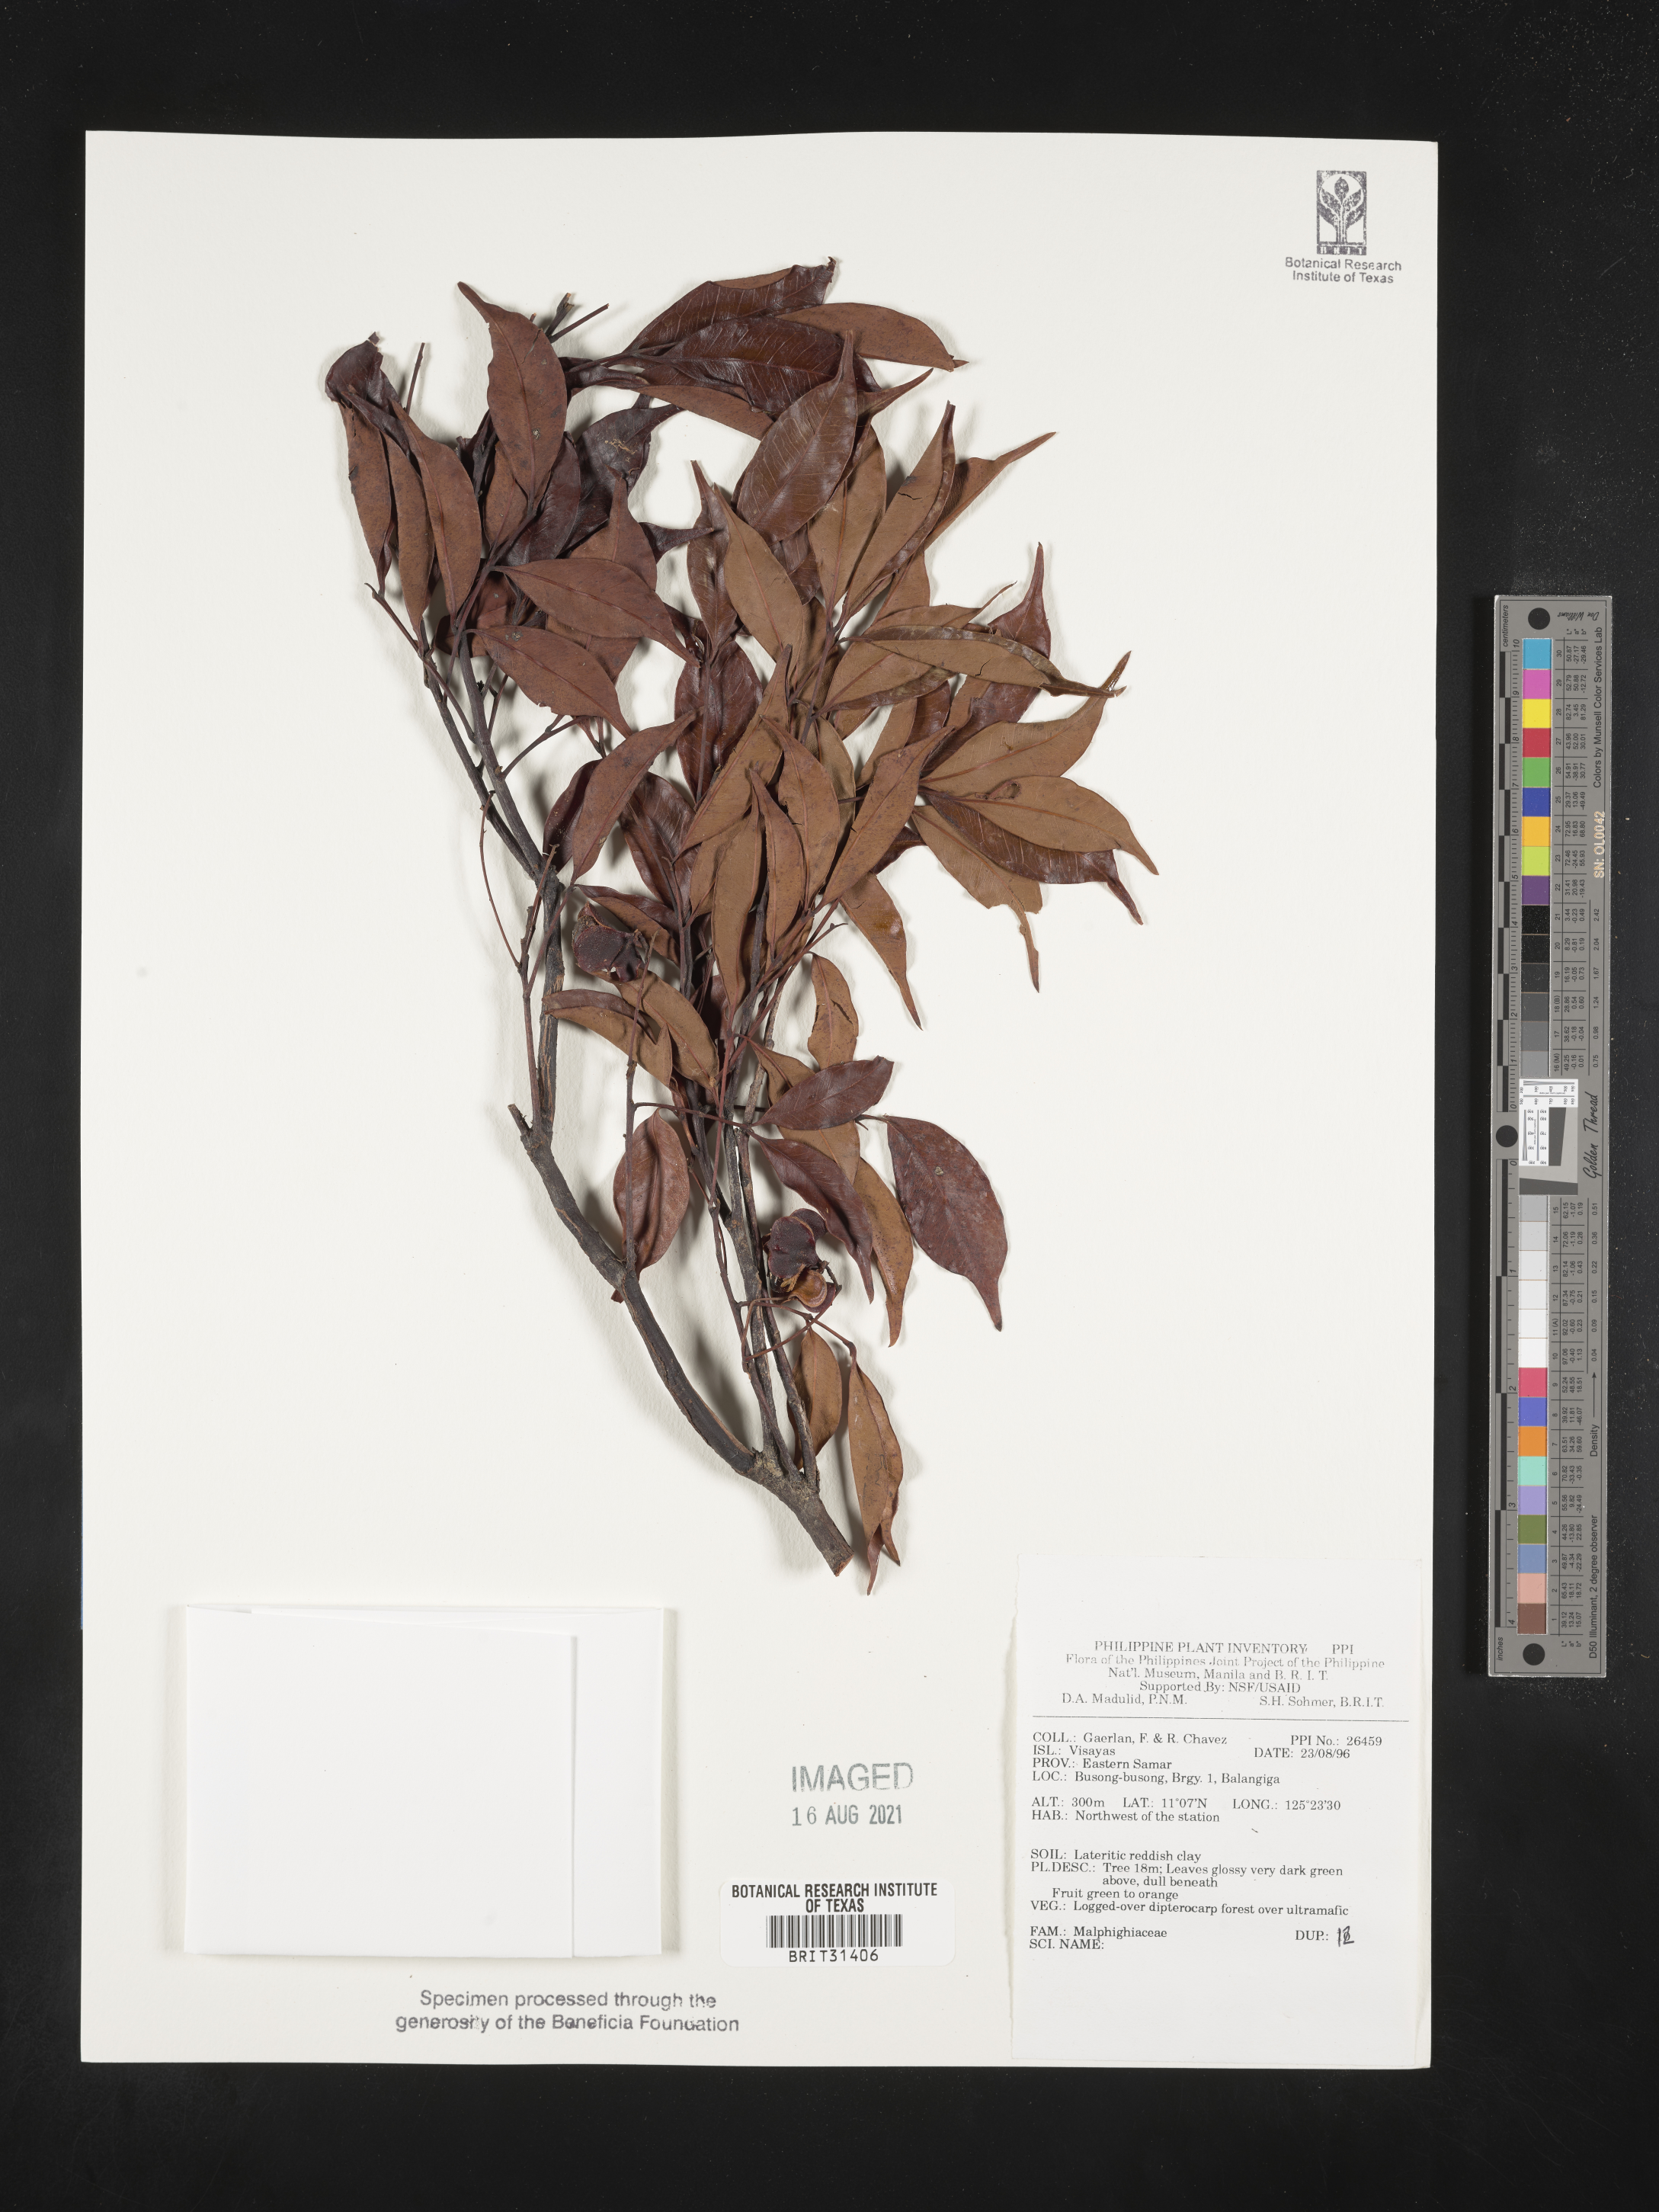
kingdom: Plantae
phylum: Tracheophyta
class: Magnoliopsida
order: Malpighiales
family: Malpighiaceae
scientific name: Malpighiaceae
